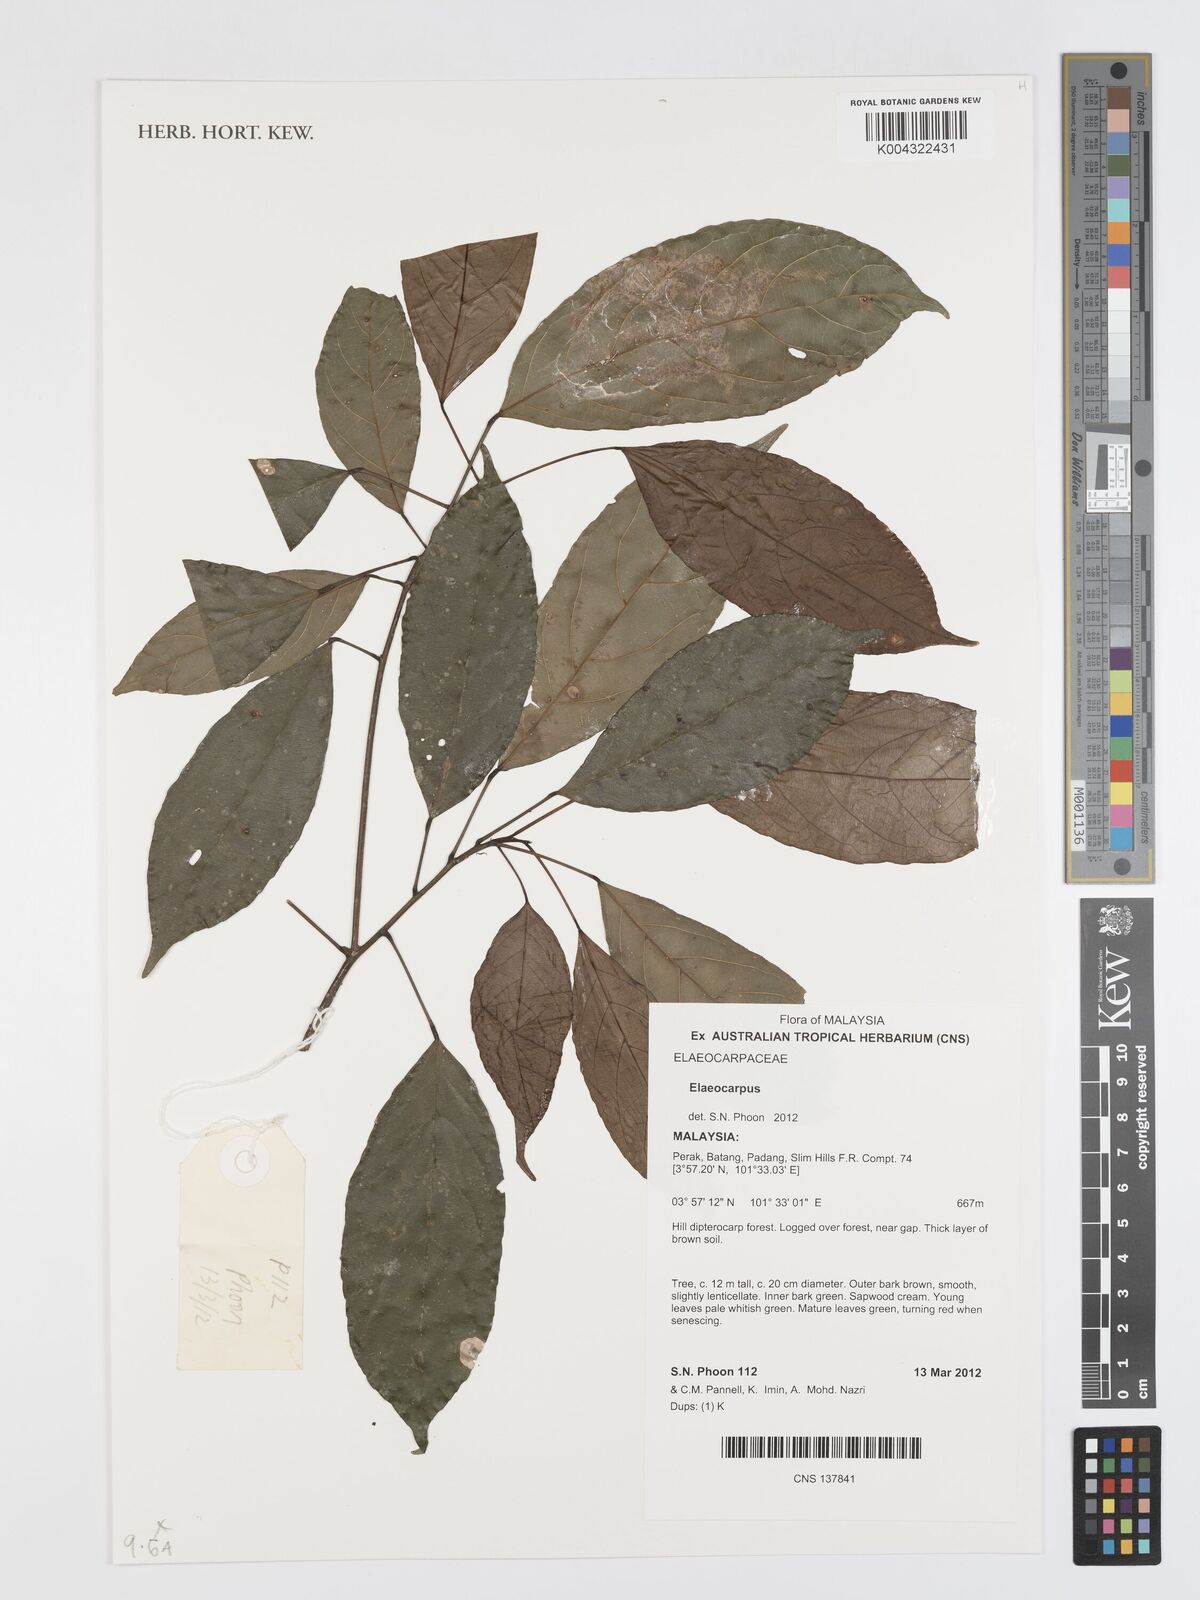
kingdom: Plantae
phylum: Tracheophyta
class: Magnoliopsida
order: Oxalidales
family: Elaeocarpaceae
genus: Elaeocarpus
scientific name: Elaeocarpus
